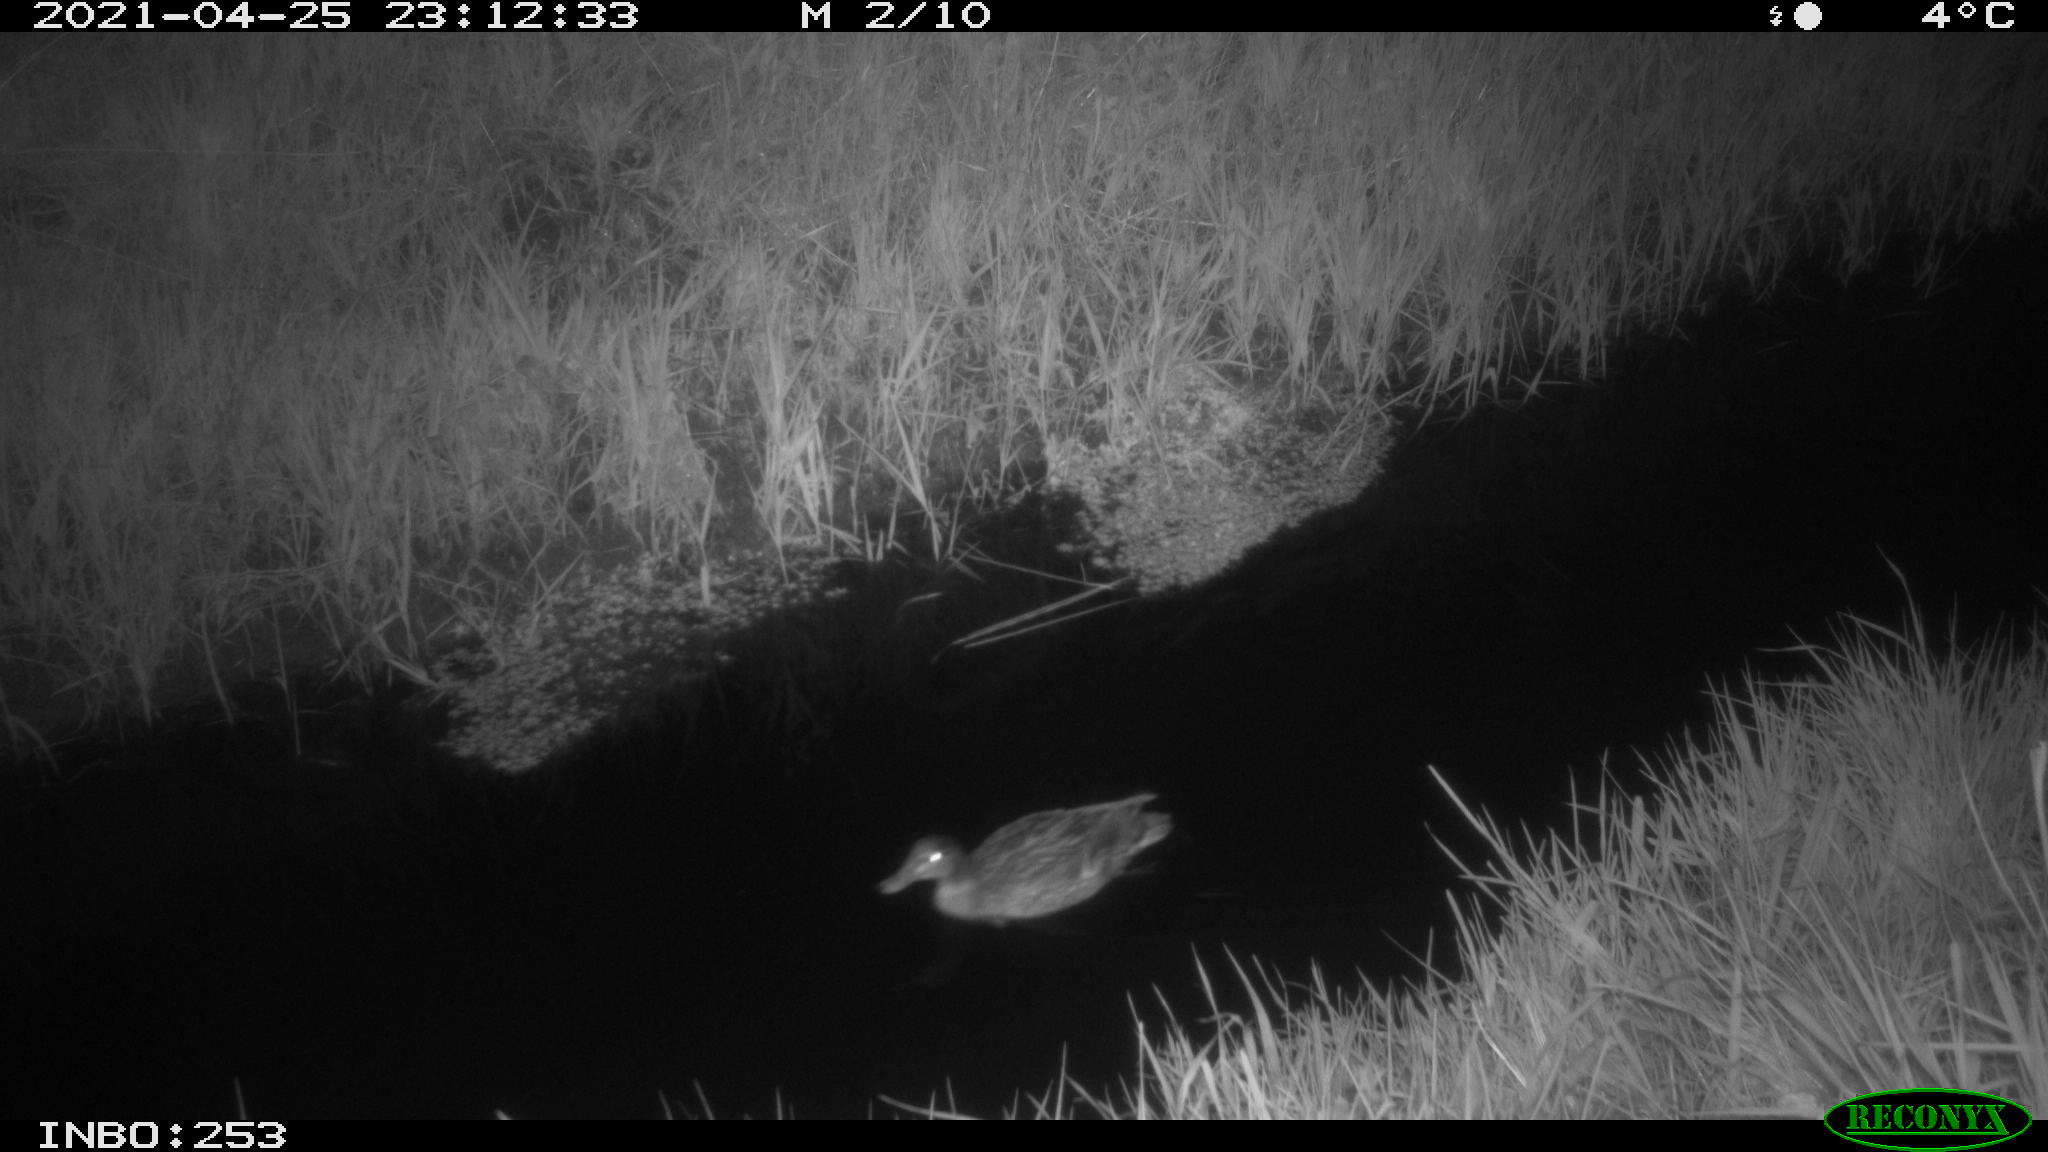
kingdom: Animalia
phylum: Chordata
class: Aves
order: Anseriformes
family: Anatidae
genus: Anas
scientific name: Anas platyrhynchos
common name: Mallard
